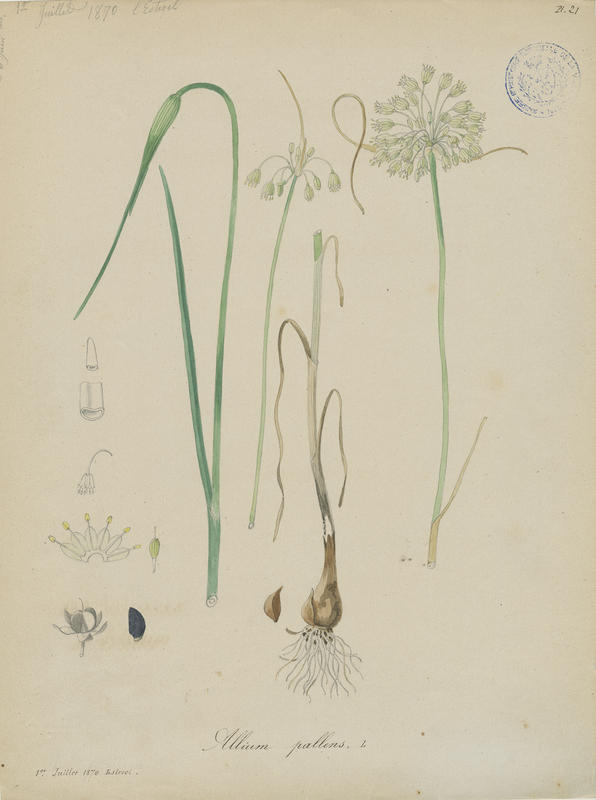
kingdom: Plantae
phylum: Tracheophyta
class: Liliopsida
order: Asparagales
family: Amaryllidaceae
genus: Allium
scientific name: Allium pallens
